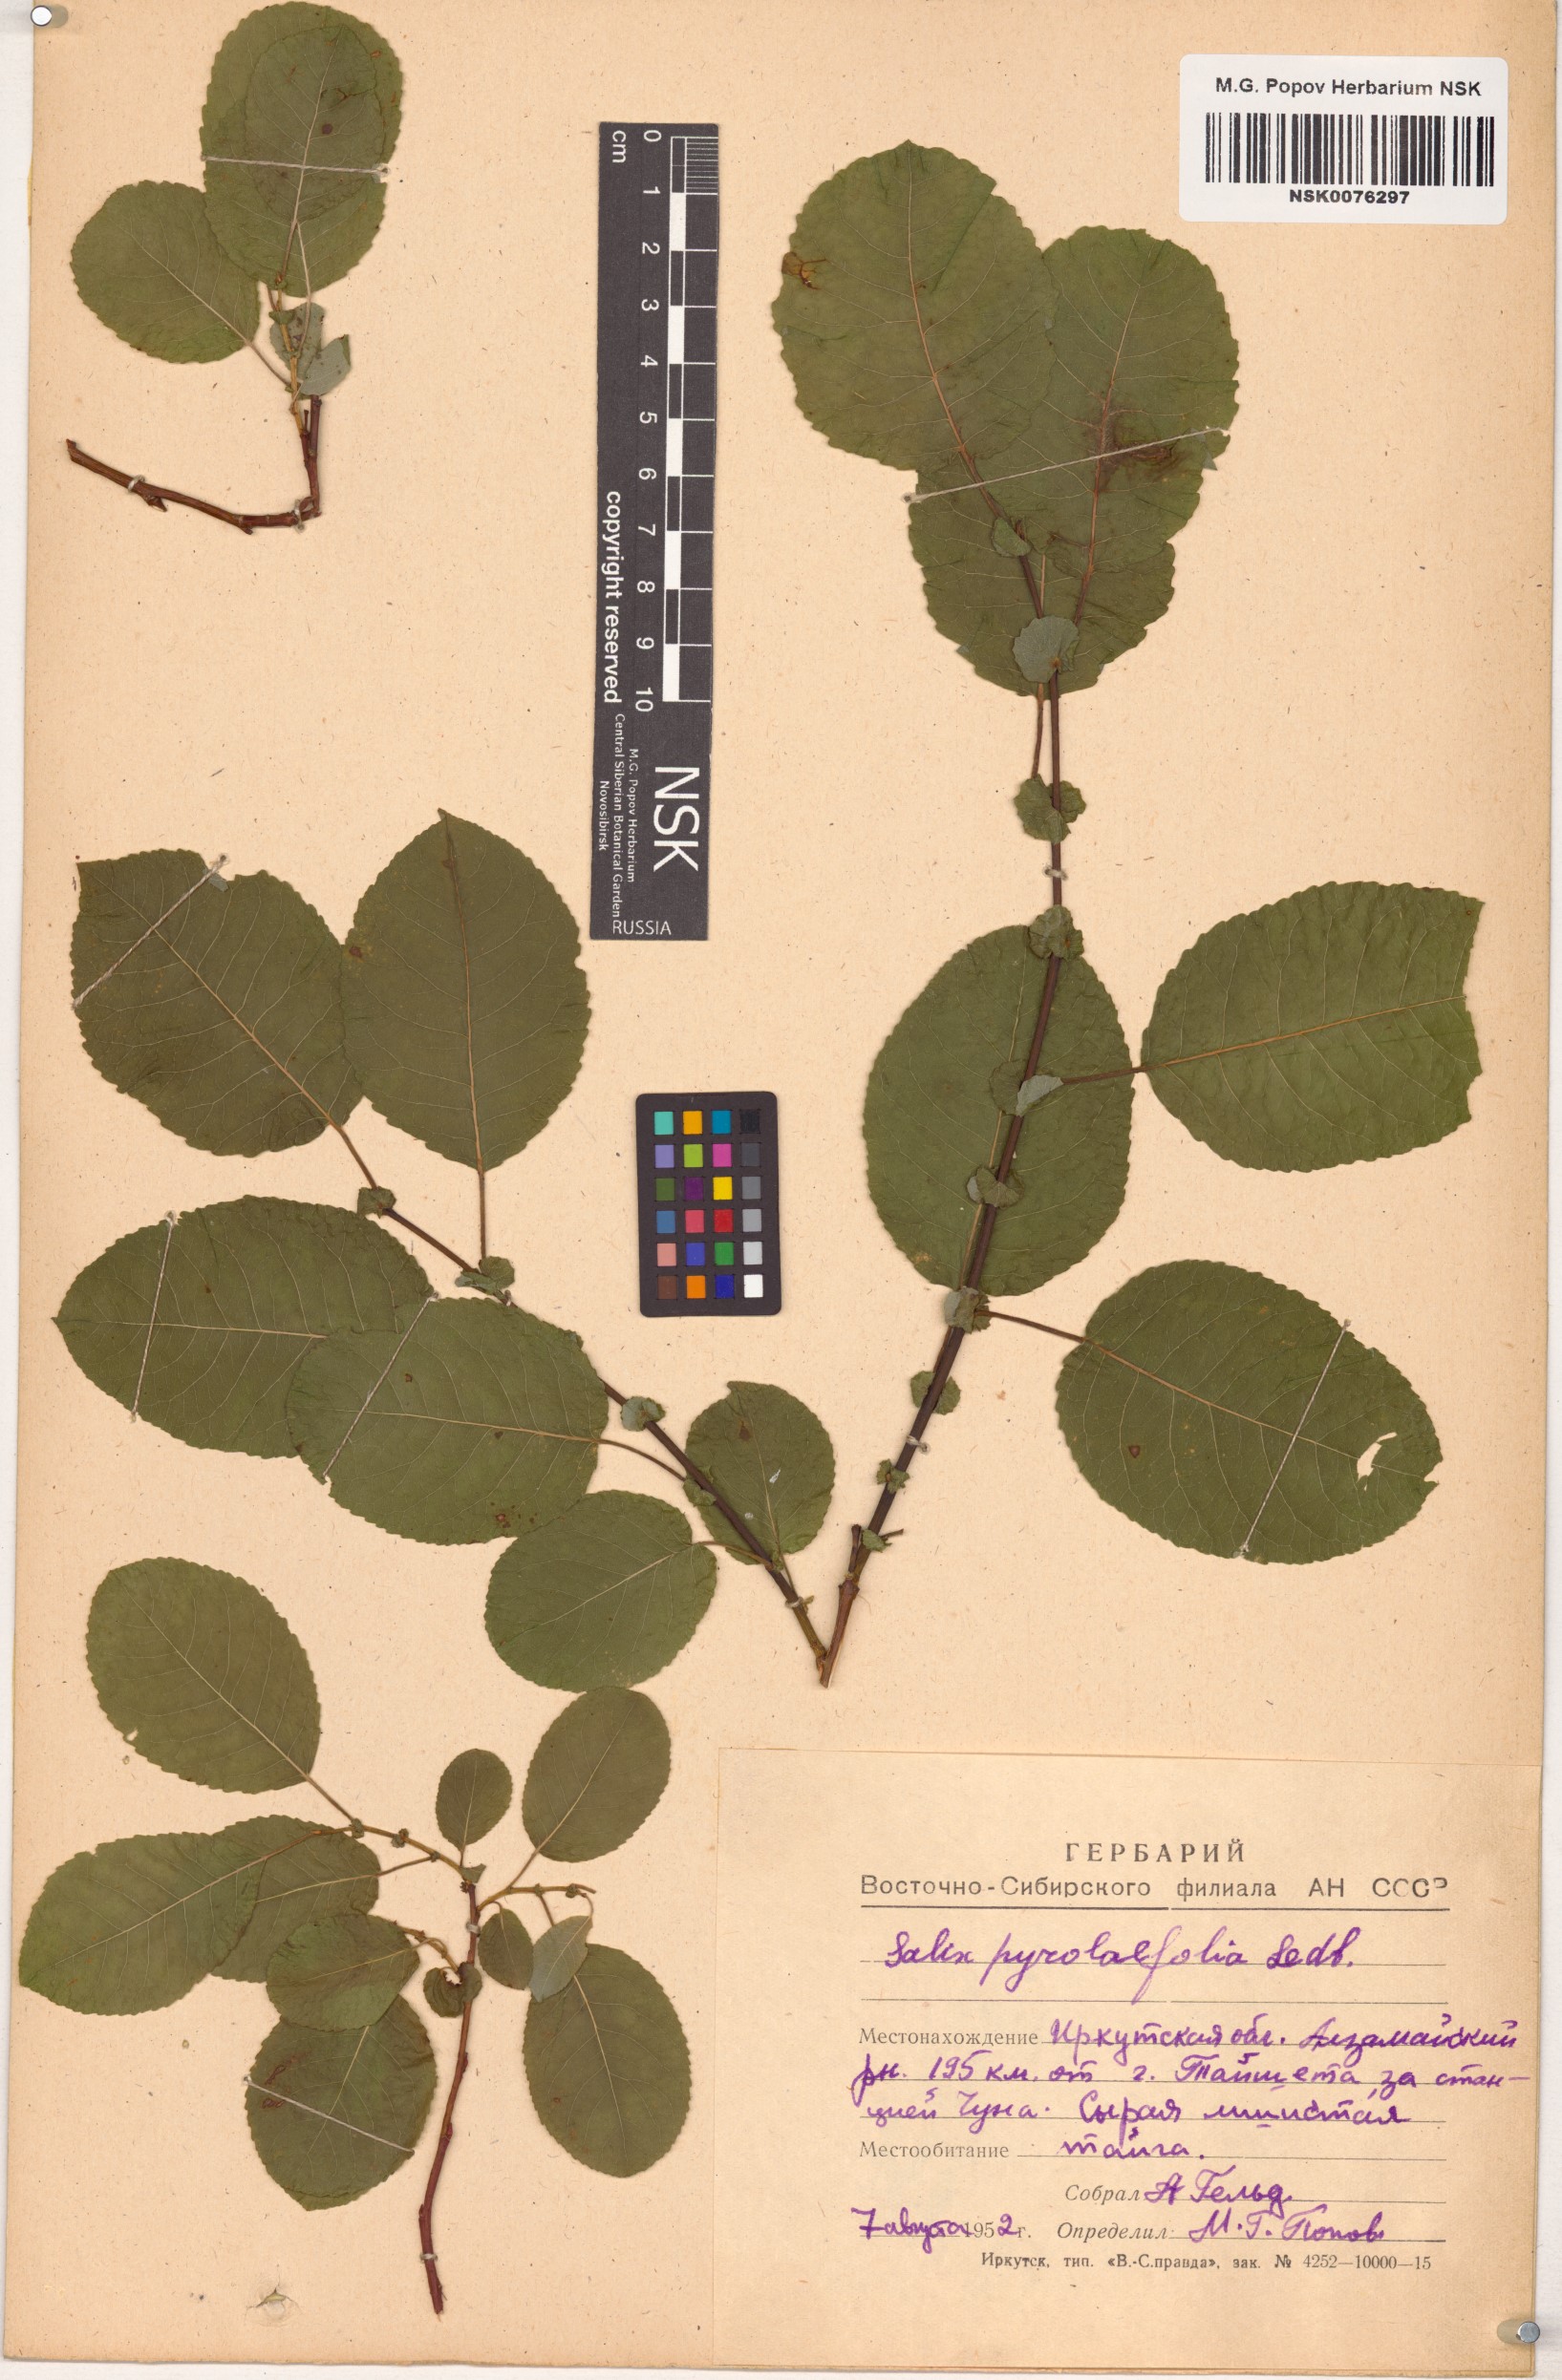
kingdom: Plantae
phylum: Tracheophyta
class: Magnoliopsida
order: Malpighiales
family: Salicaceae
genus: Salix
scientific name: Salix pyrolifolia
